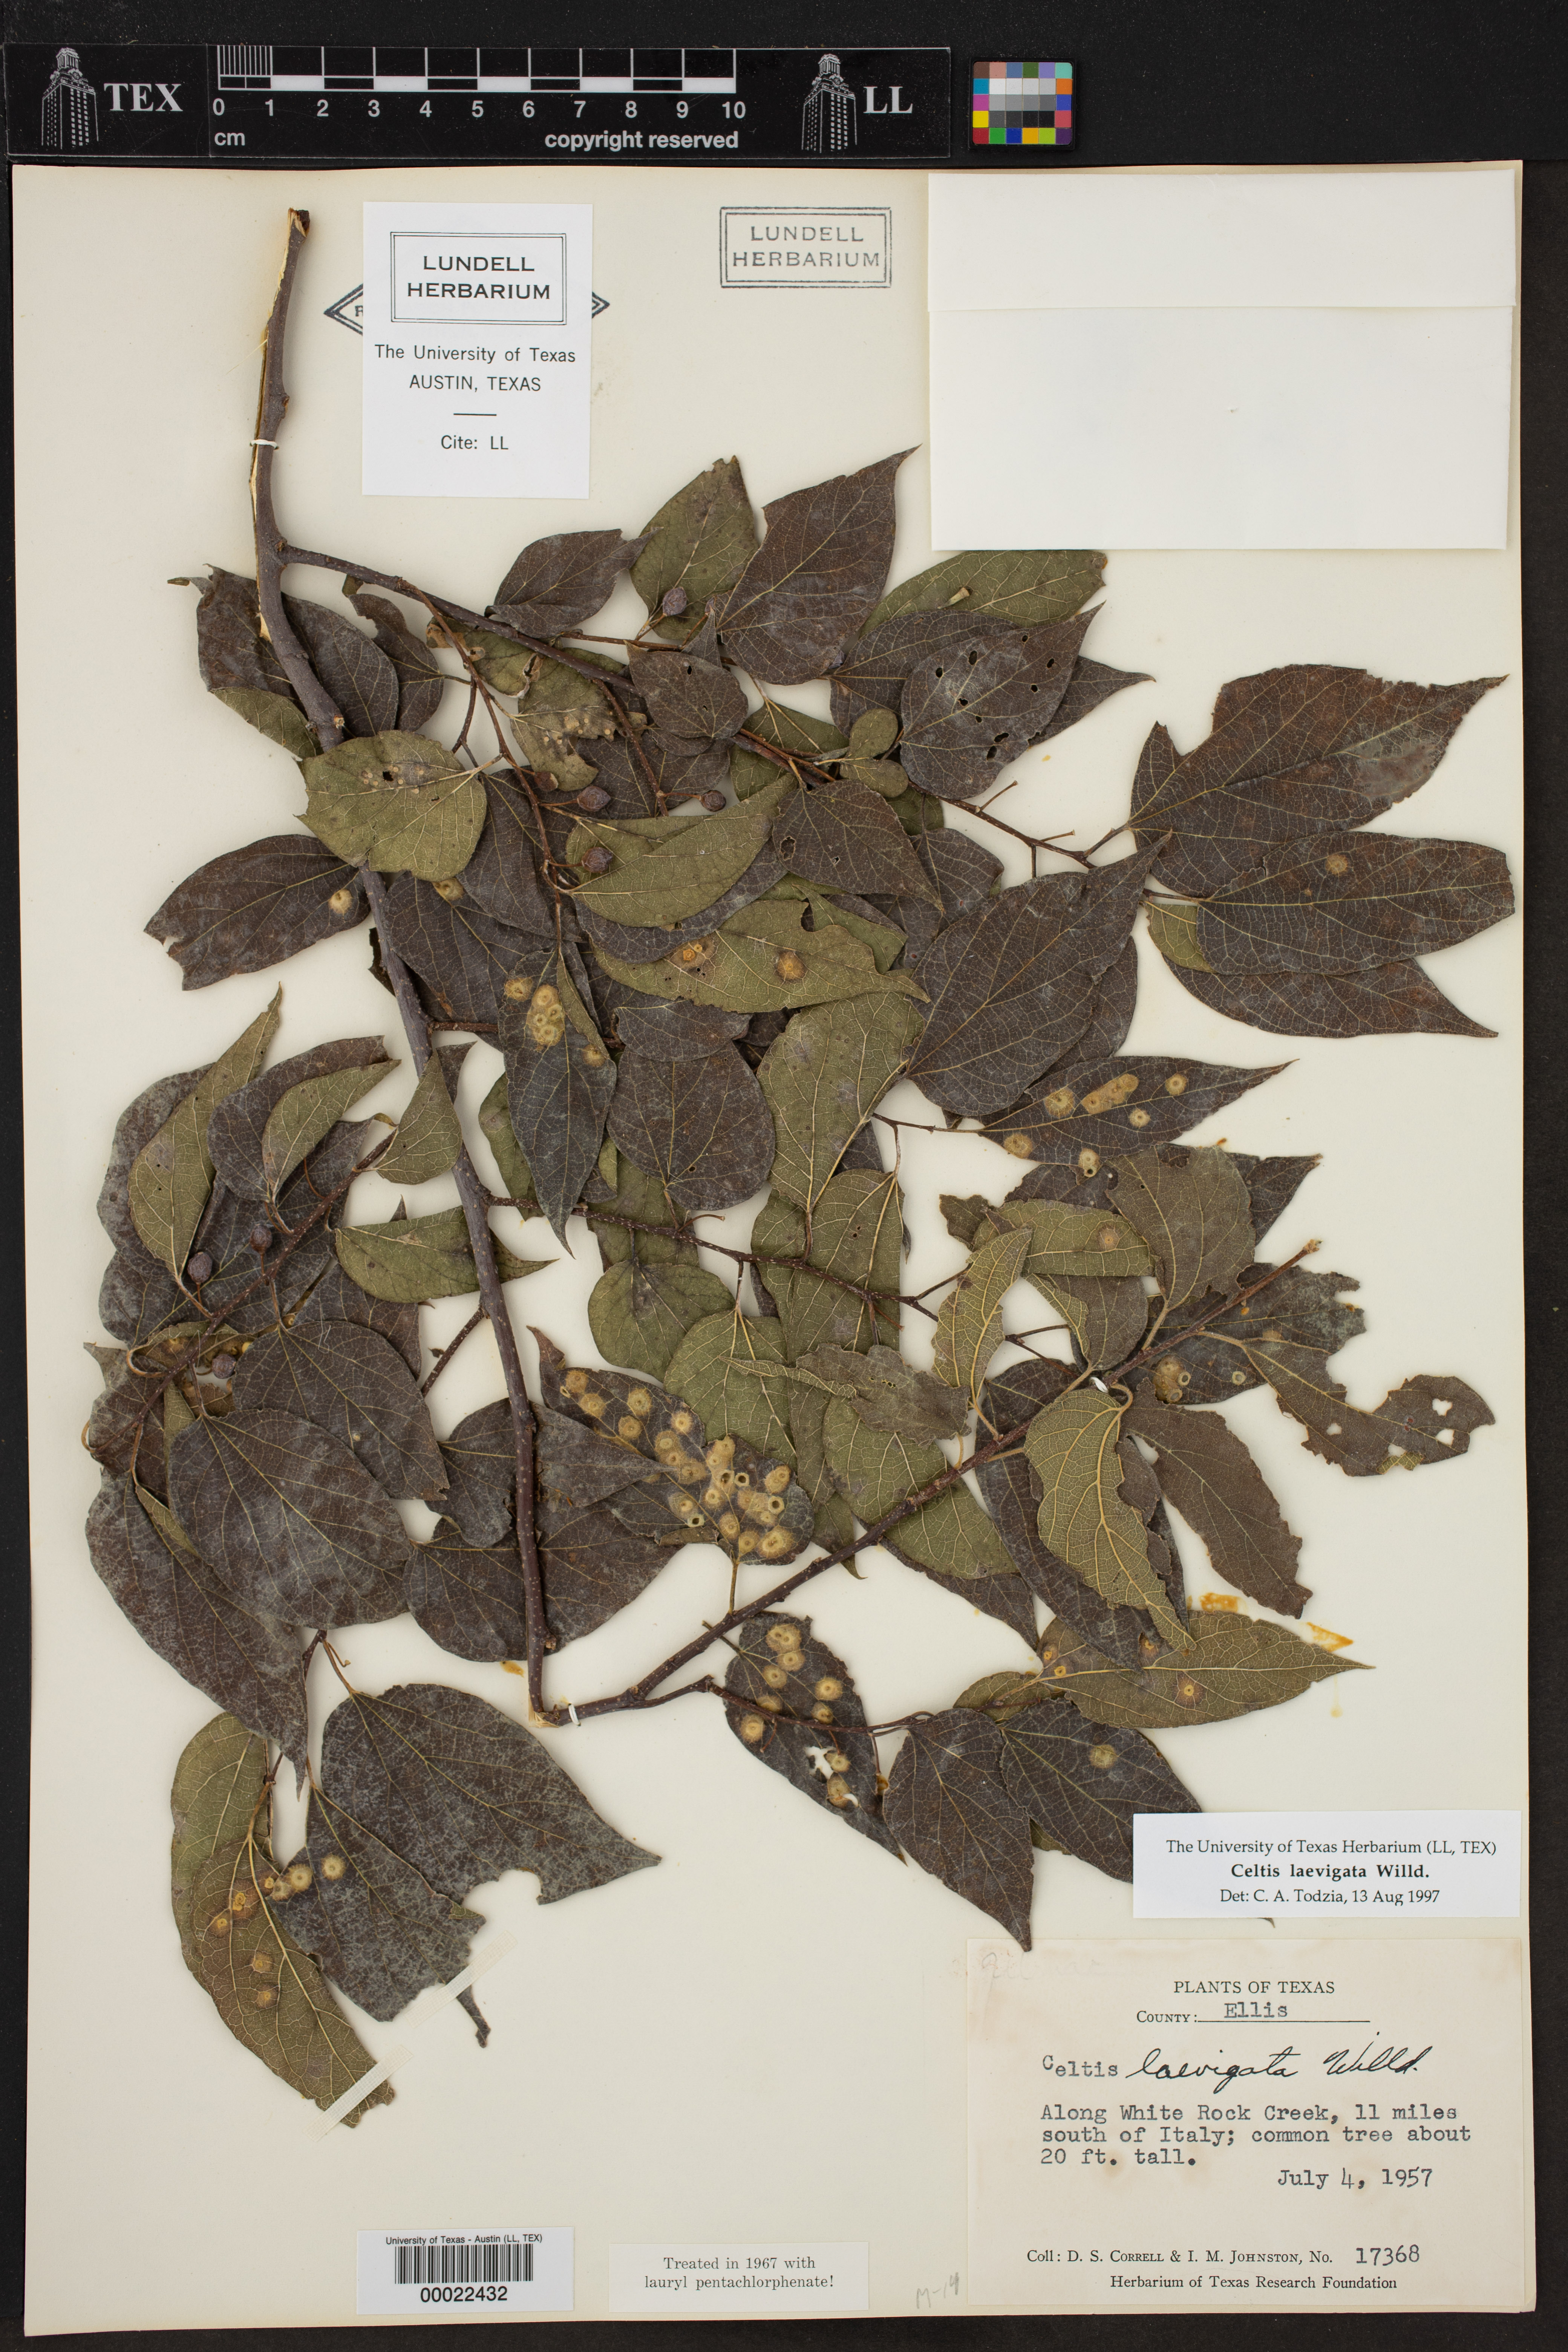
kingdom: Plantae
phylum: Tracheophyta
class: Magnoliopsida
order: Rosales
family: Cannabaceae
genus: Celtis
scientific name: Celtis laevigata
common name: Sugarberry
